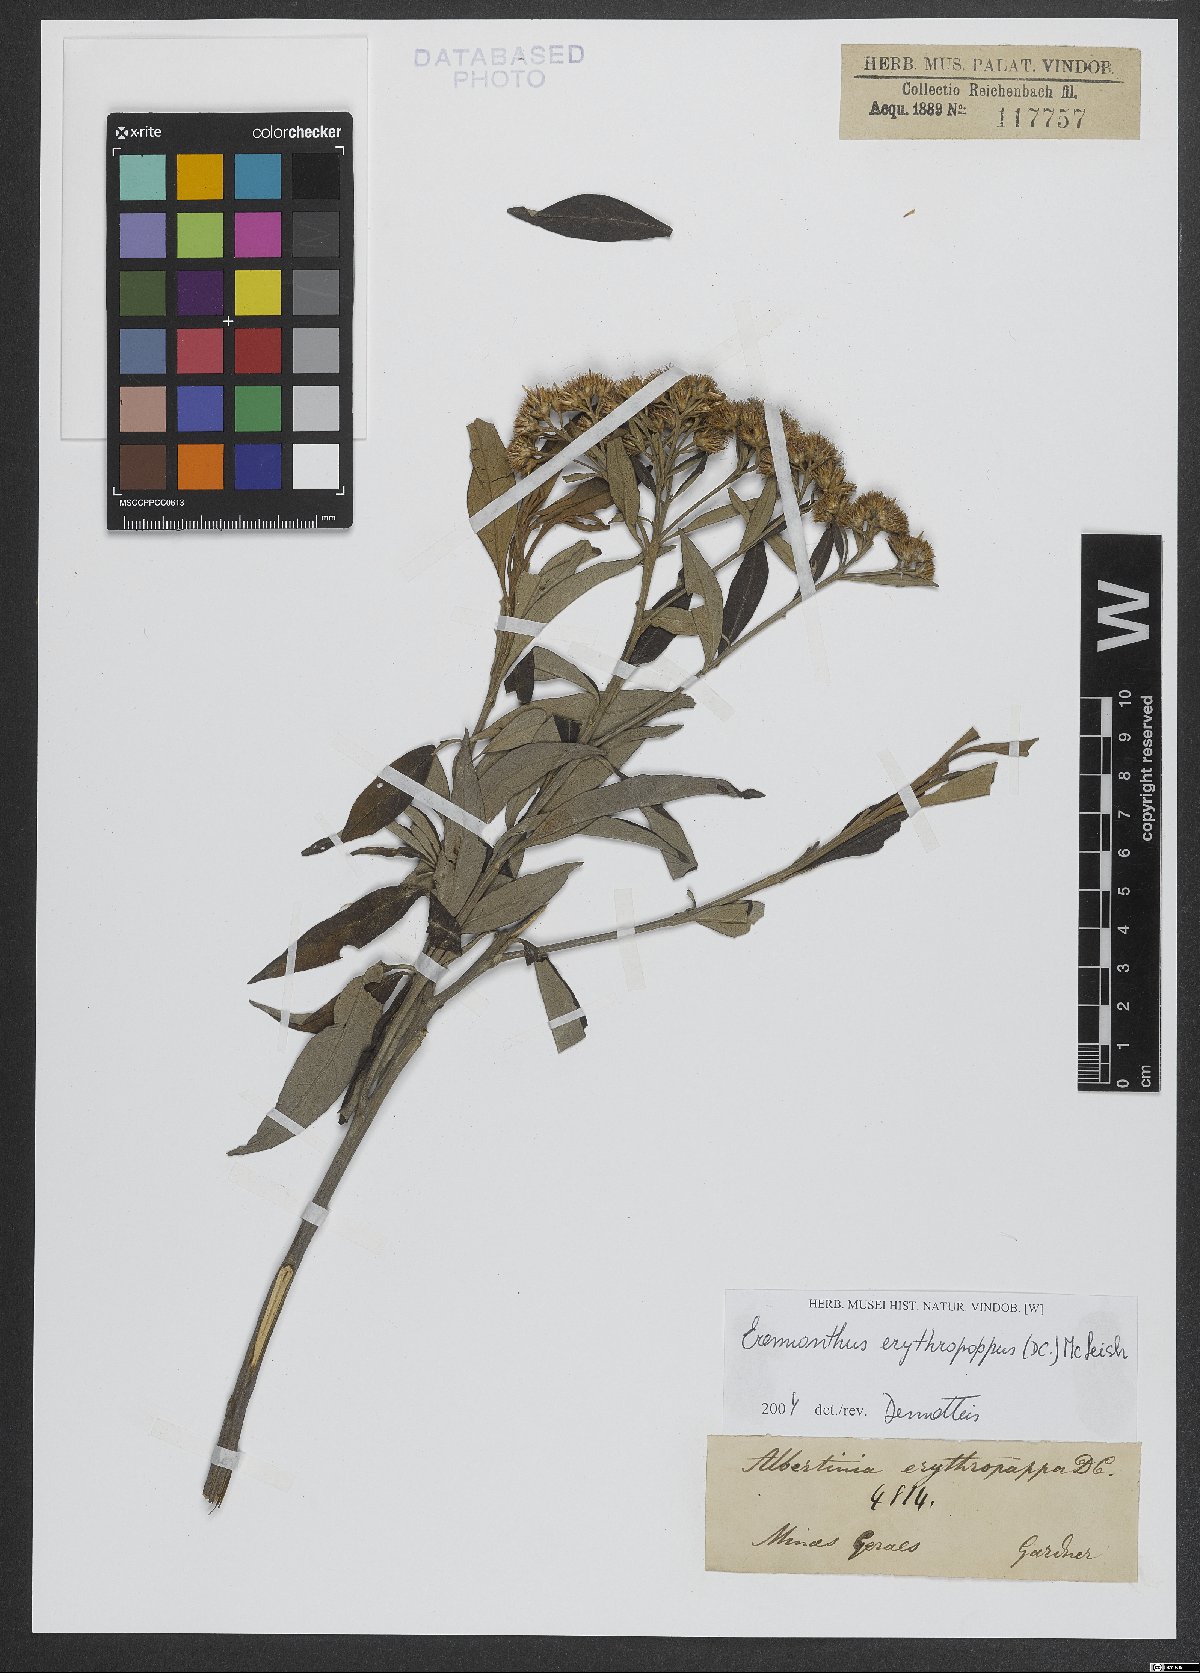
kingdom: Plantae
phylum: Tracheophyta
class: Magnoliopsida
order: Asterales
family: Asteraceae
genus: Eremanthus
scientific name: Eremanthus erythropappus
